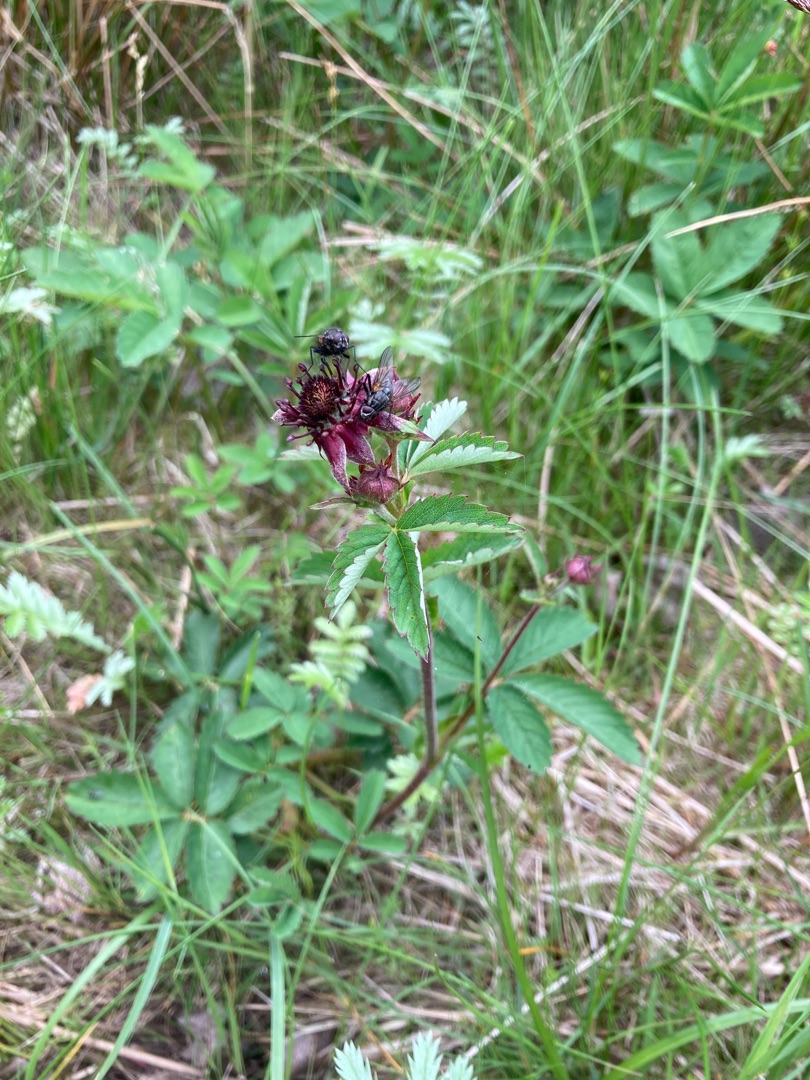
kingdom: Plantae
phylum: Tracheophyta
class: Magnoliopsida
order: Rosales
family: Rosaceae
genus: Comarum
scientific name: Comarum palustre
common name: Kragefod
